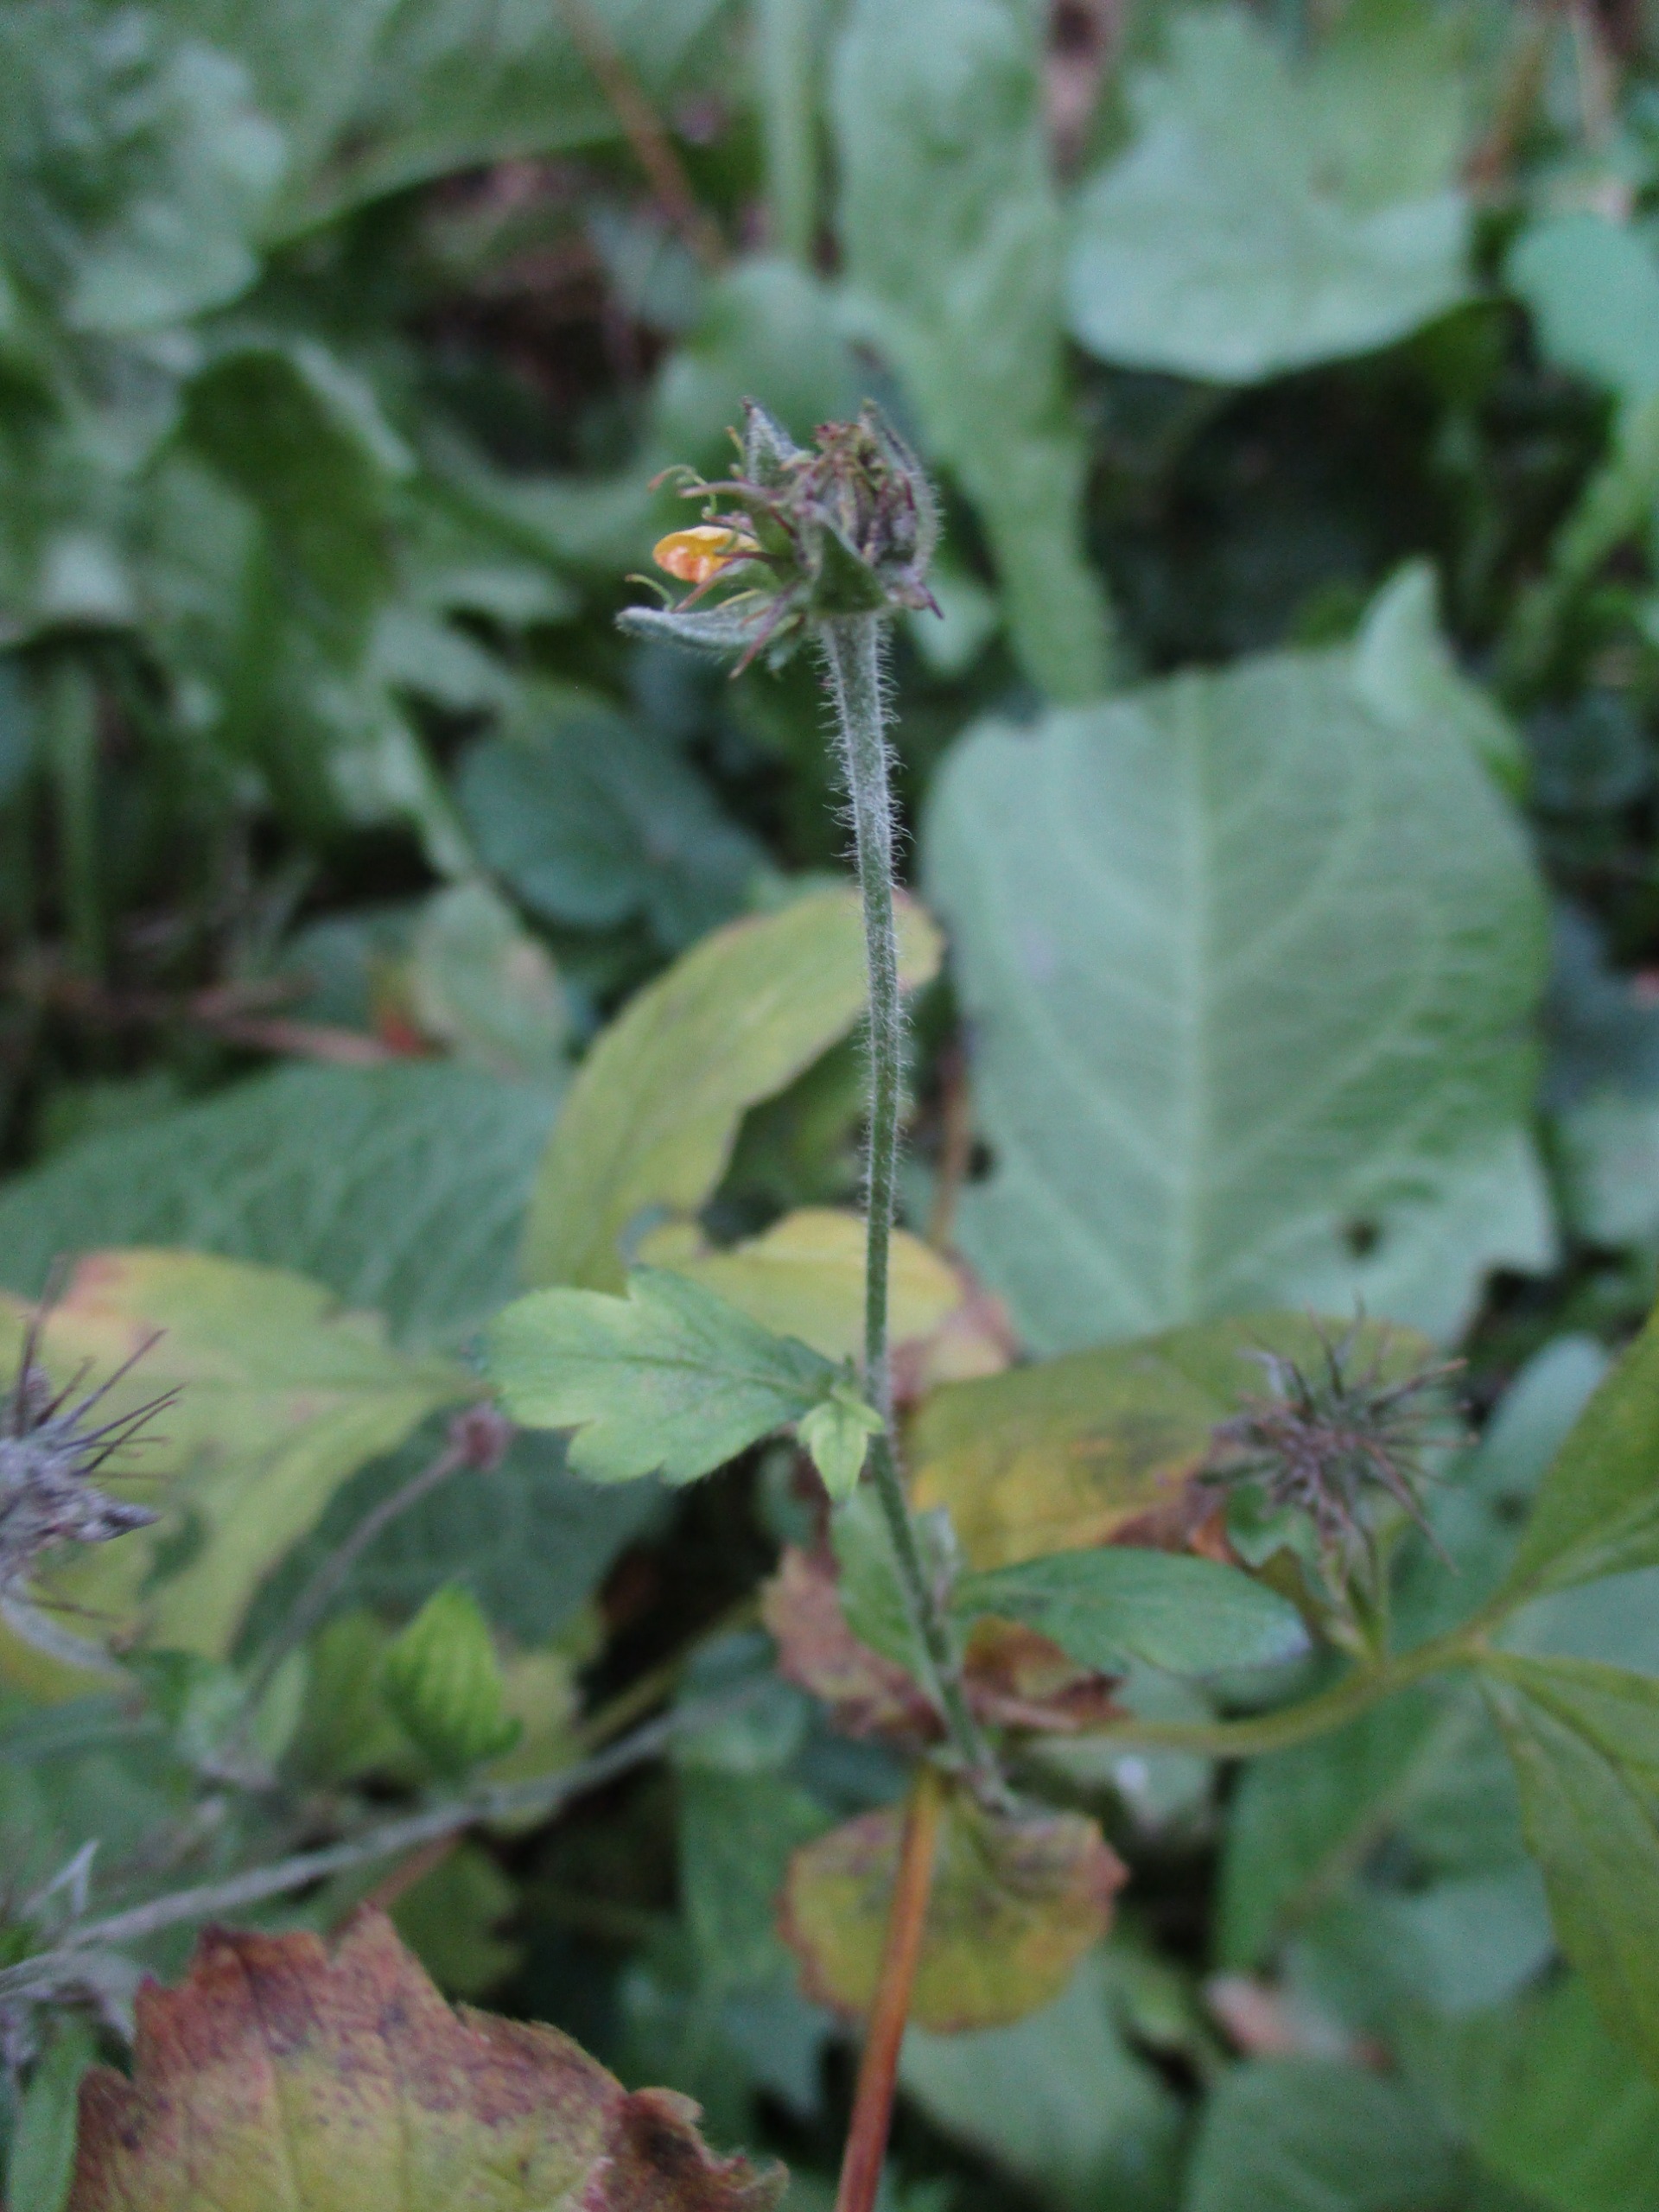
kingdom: Plantae
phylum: Tracheophyta
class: Magnoliopsida
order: Rosales
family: Rosaceae
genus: Geum
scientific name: Geum urbanum
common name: Feber-nellikerod
